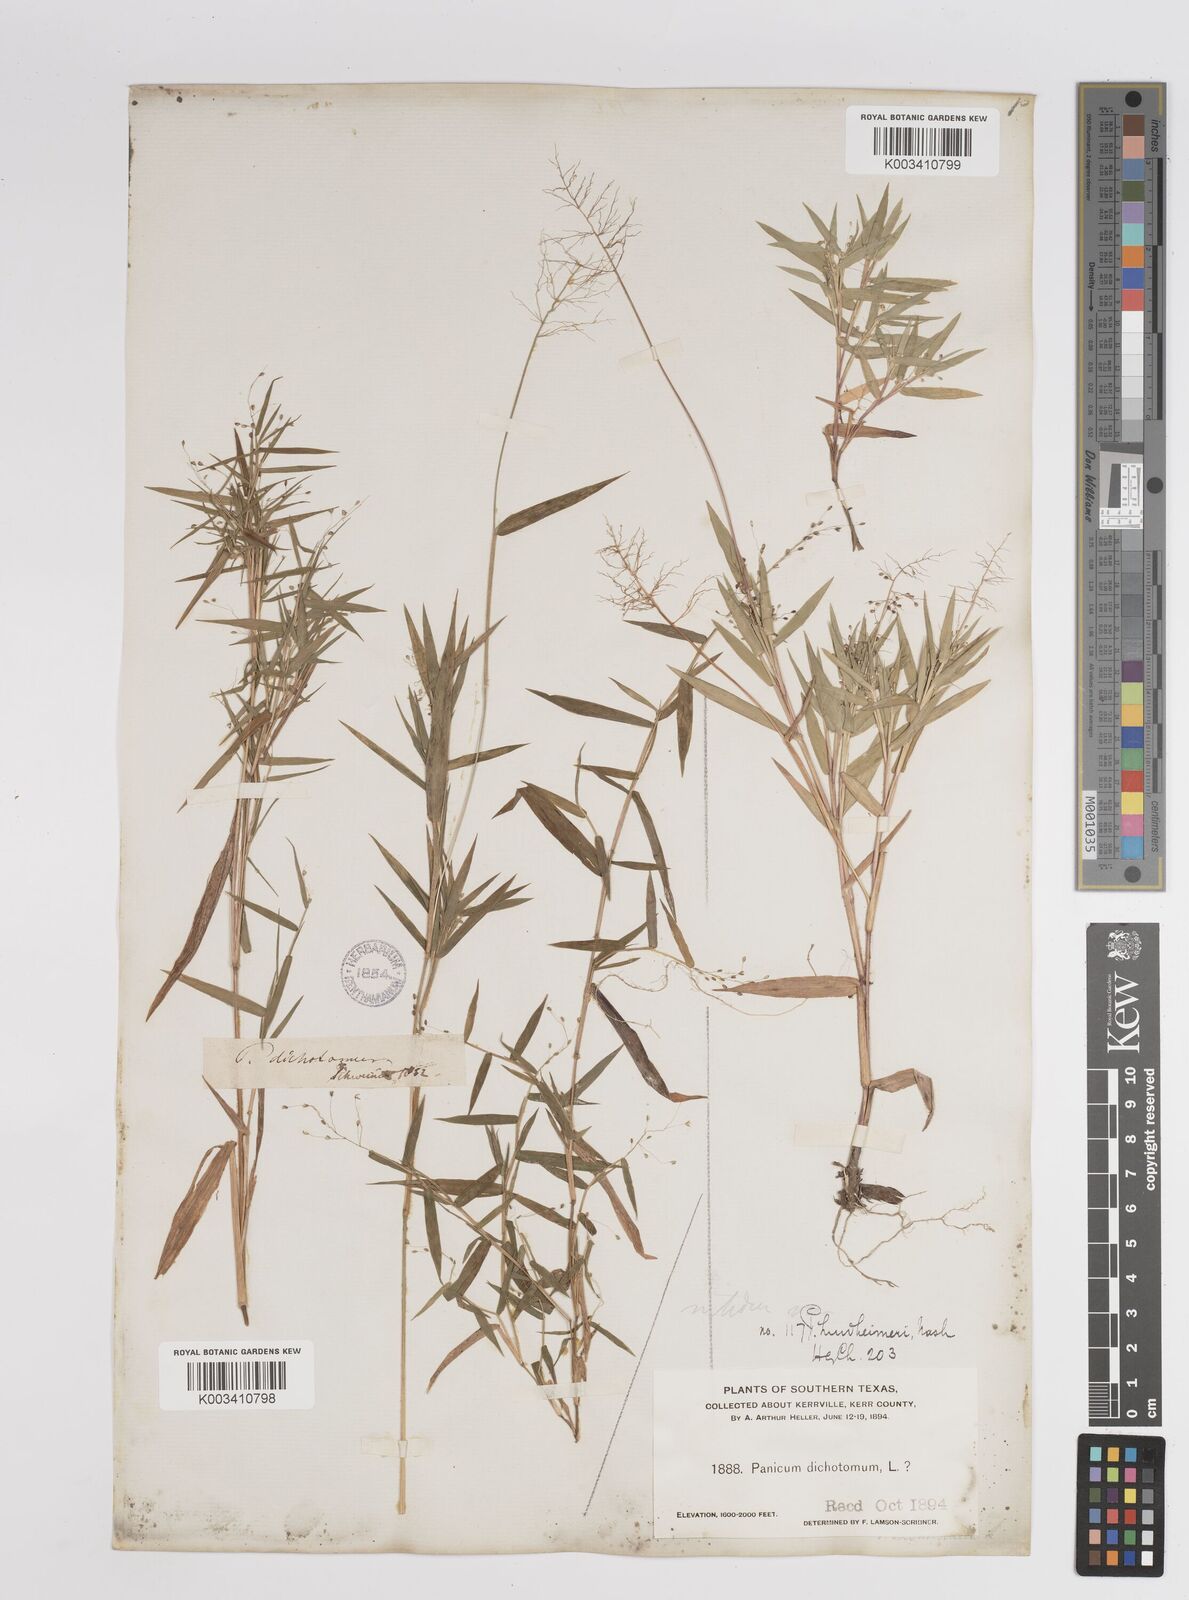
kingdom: Plantae
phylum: Tracheophyta
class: Liliopsida
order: Poales
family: Poaceae
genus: Dichanthelium
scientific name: Dichanthelium acuminatum
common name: Hairy panic grass
